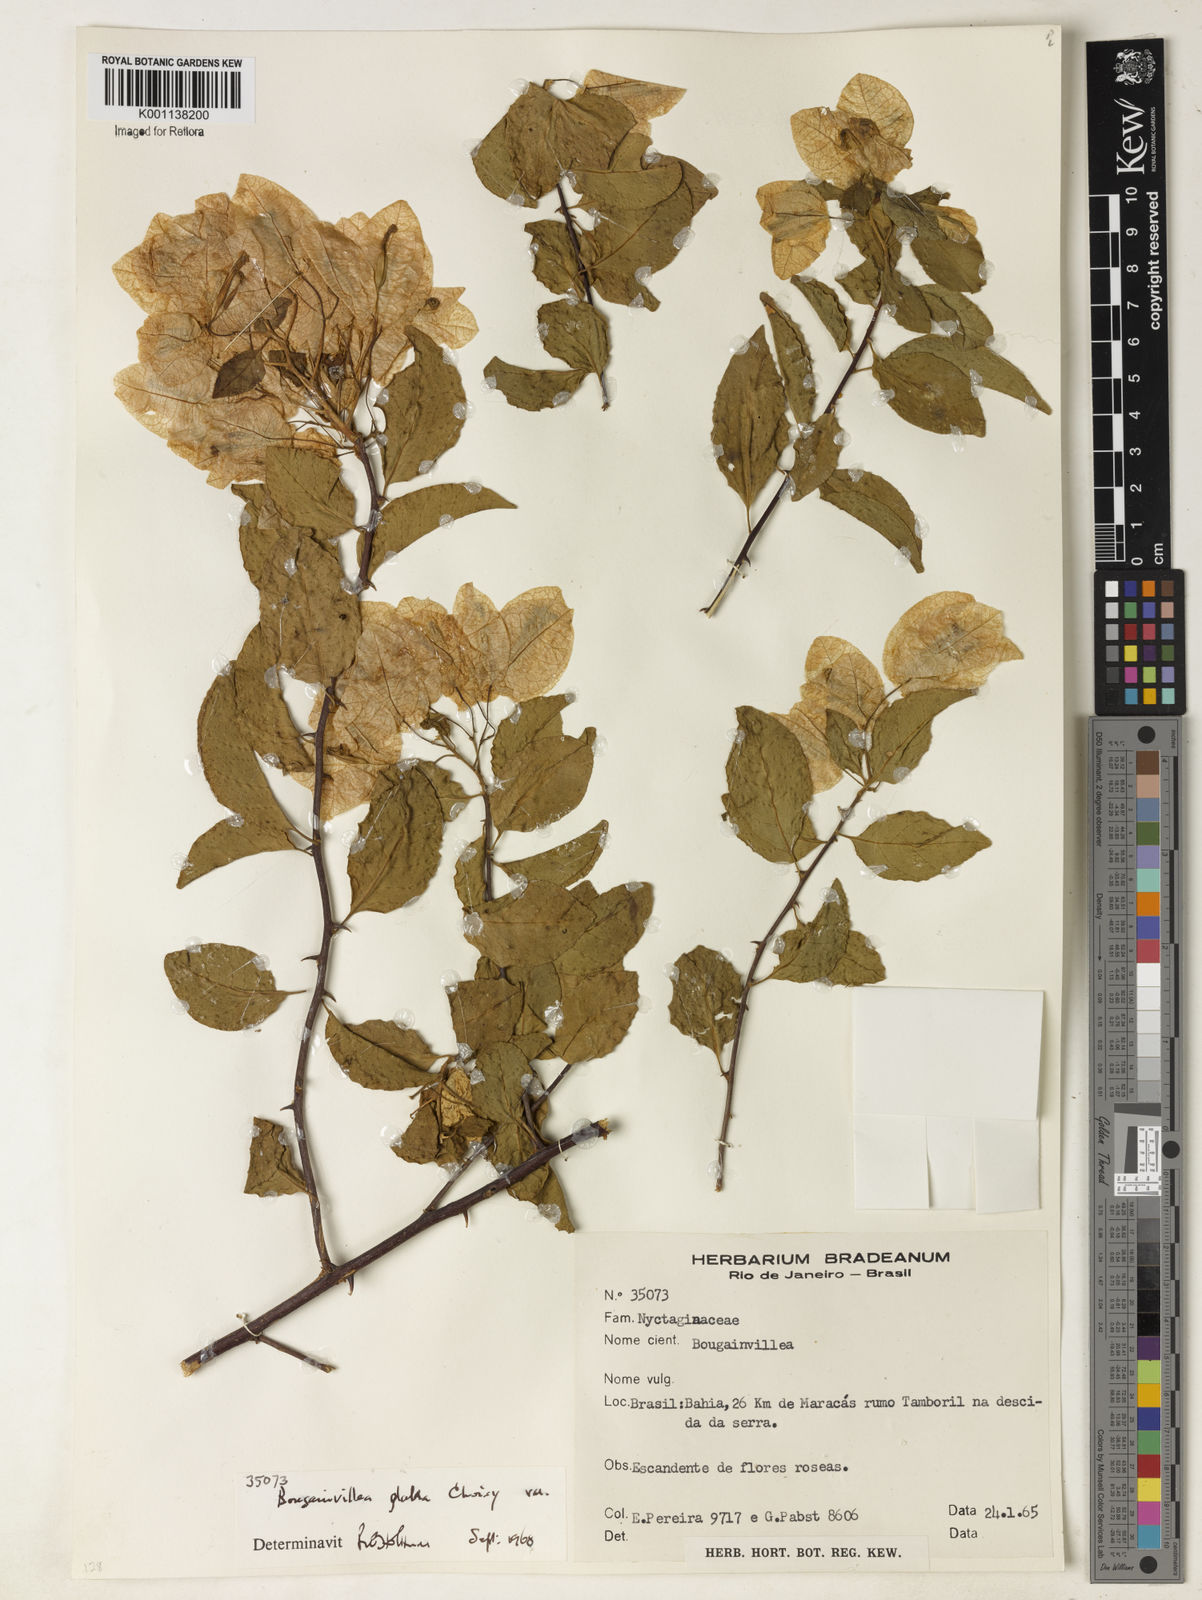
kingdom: Plantae
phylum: Tracheophyta
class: Magnoliopsida
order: Caryophyllales
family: Nyctaginaceae
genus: Bougainvillea
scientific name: Bougainvillea glabra
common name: Paperflower
